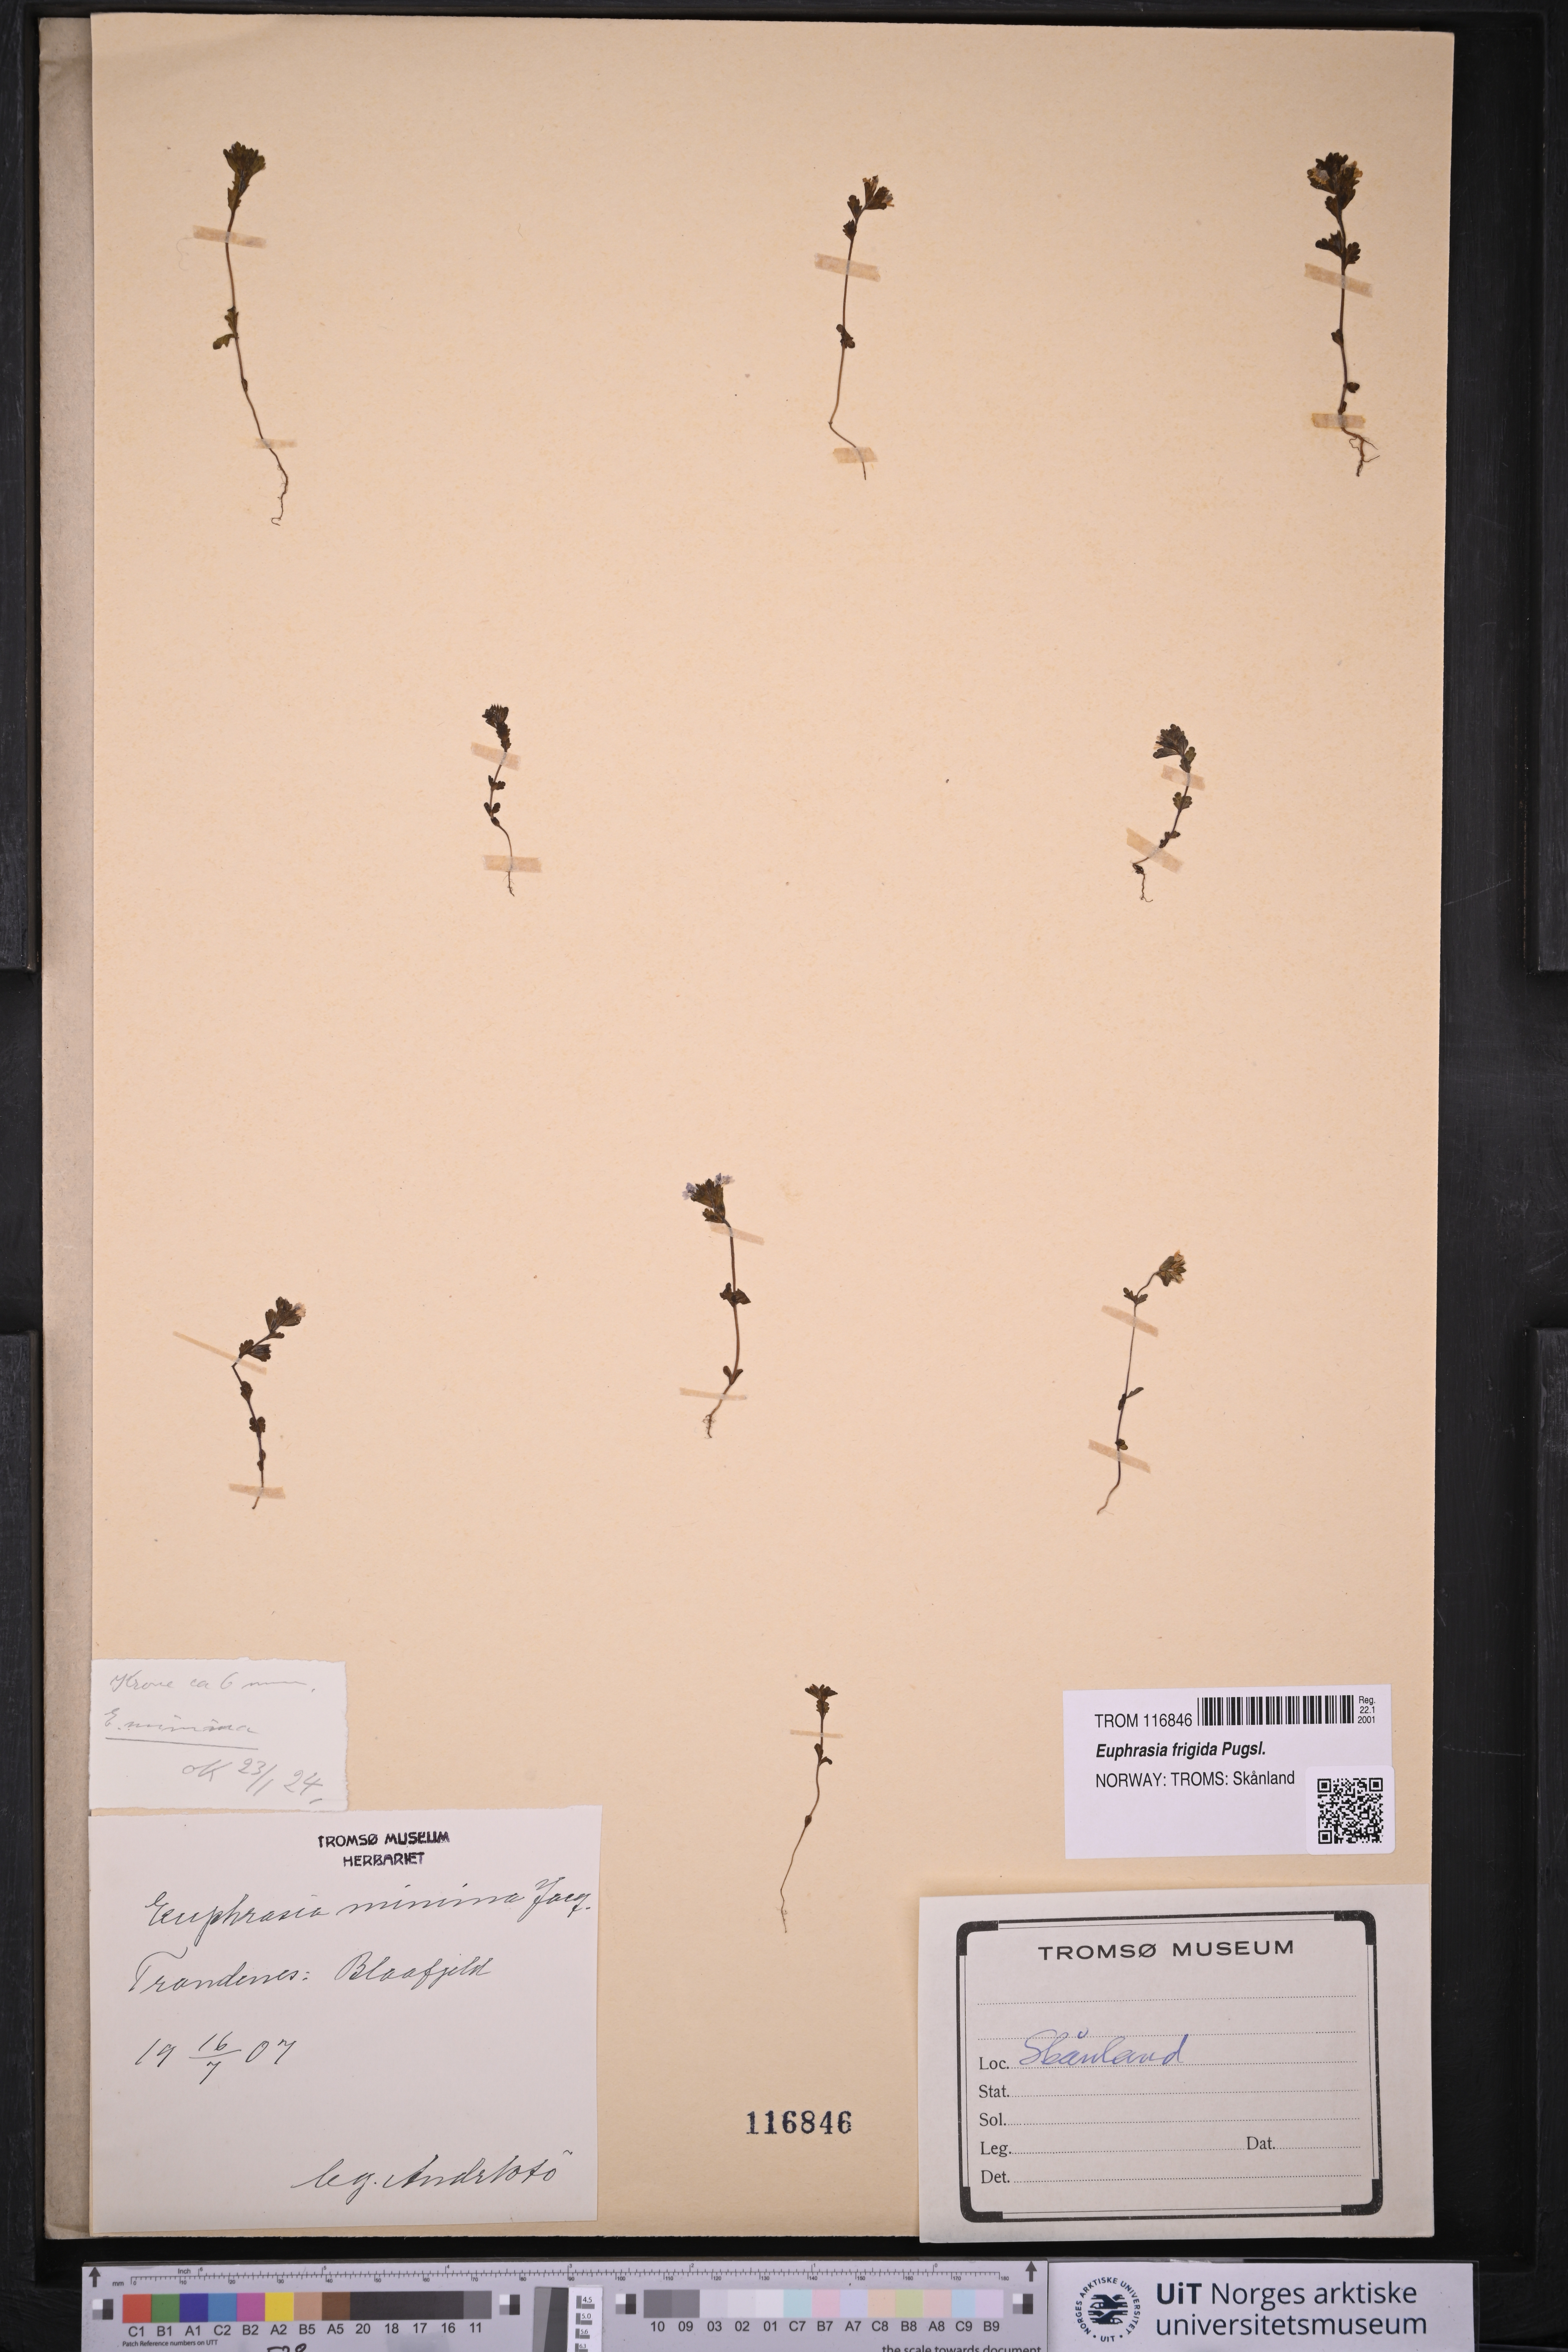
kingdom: Plantae
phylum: Tracheophyta
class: Magnoliopsida
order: Lamiales
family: Orobanchaceae
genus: Euphrasia
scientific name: Euphrasia wettsteinii
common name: Wettstein's eyebright
